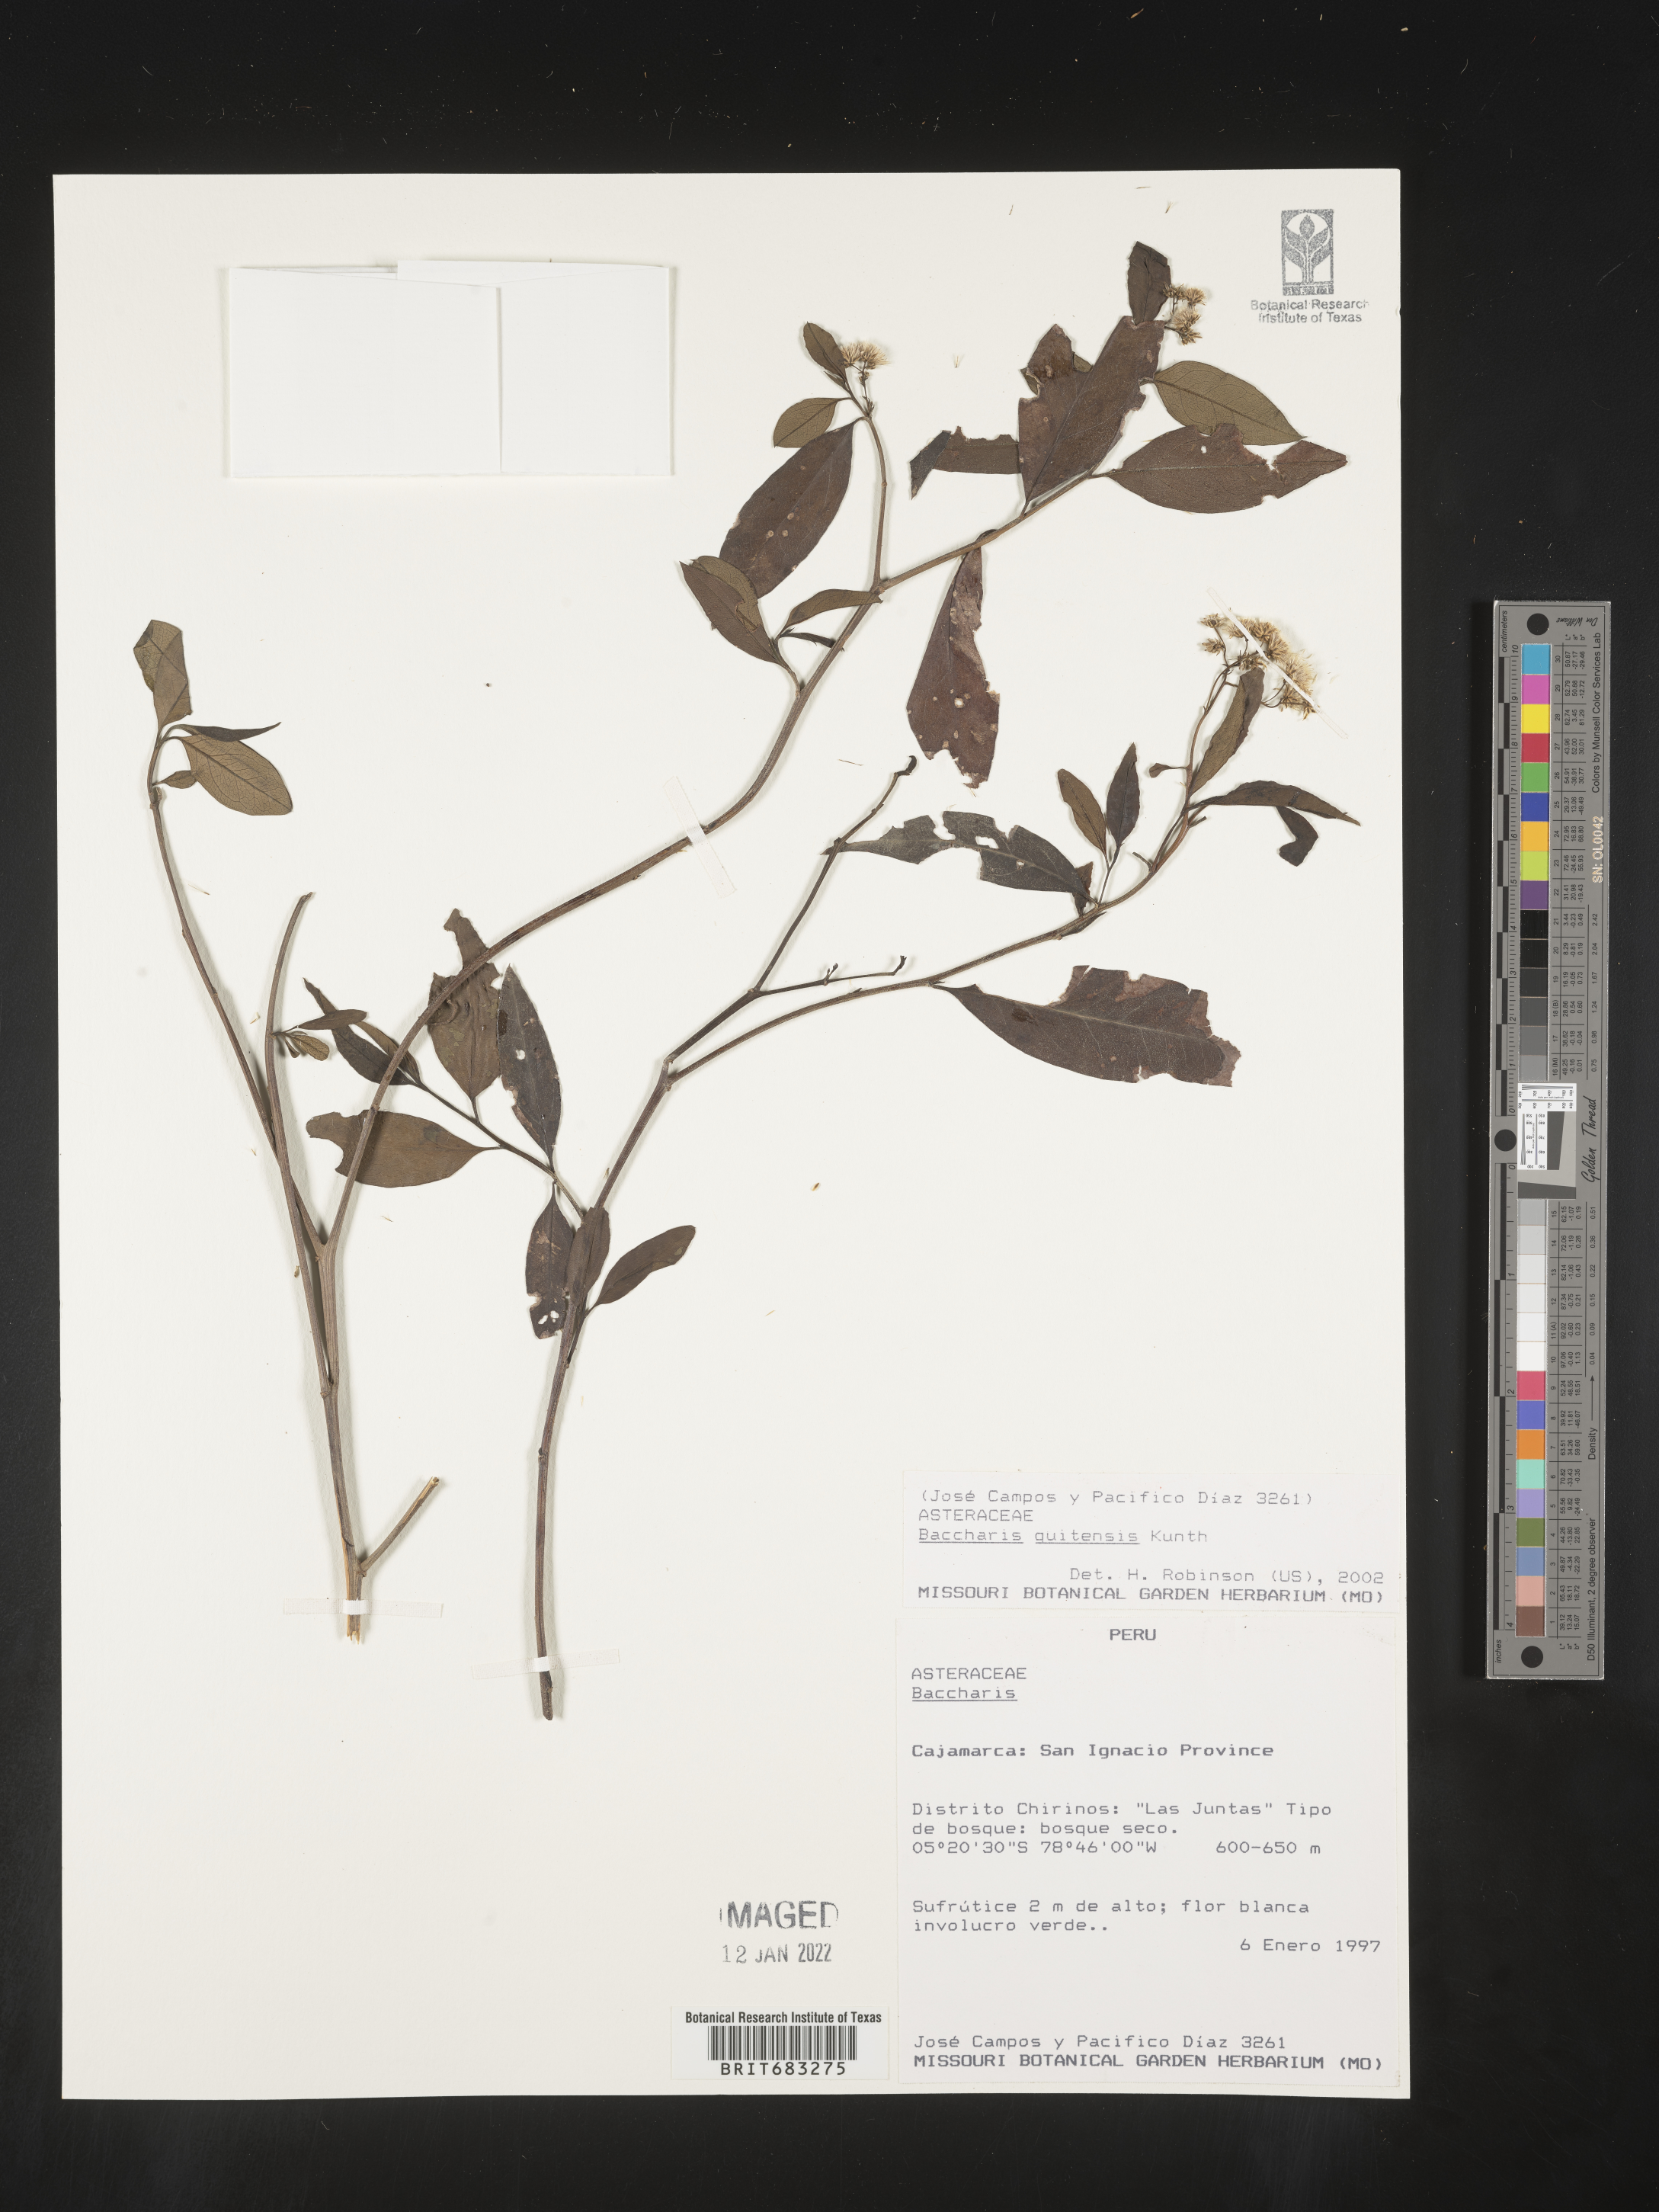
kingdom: Plantae
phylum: Tracheophyta
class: Magnoliopsida
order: Asterales
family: Asteraceae
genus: Baccharis
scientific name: Baccharis
